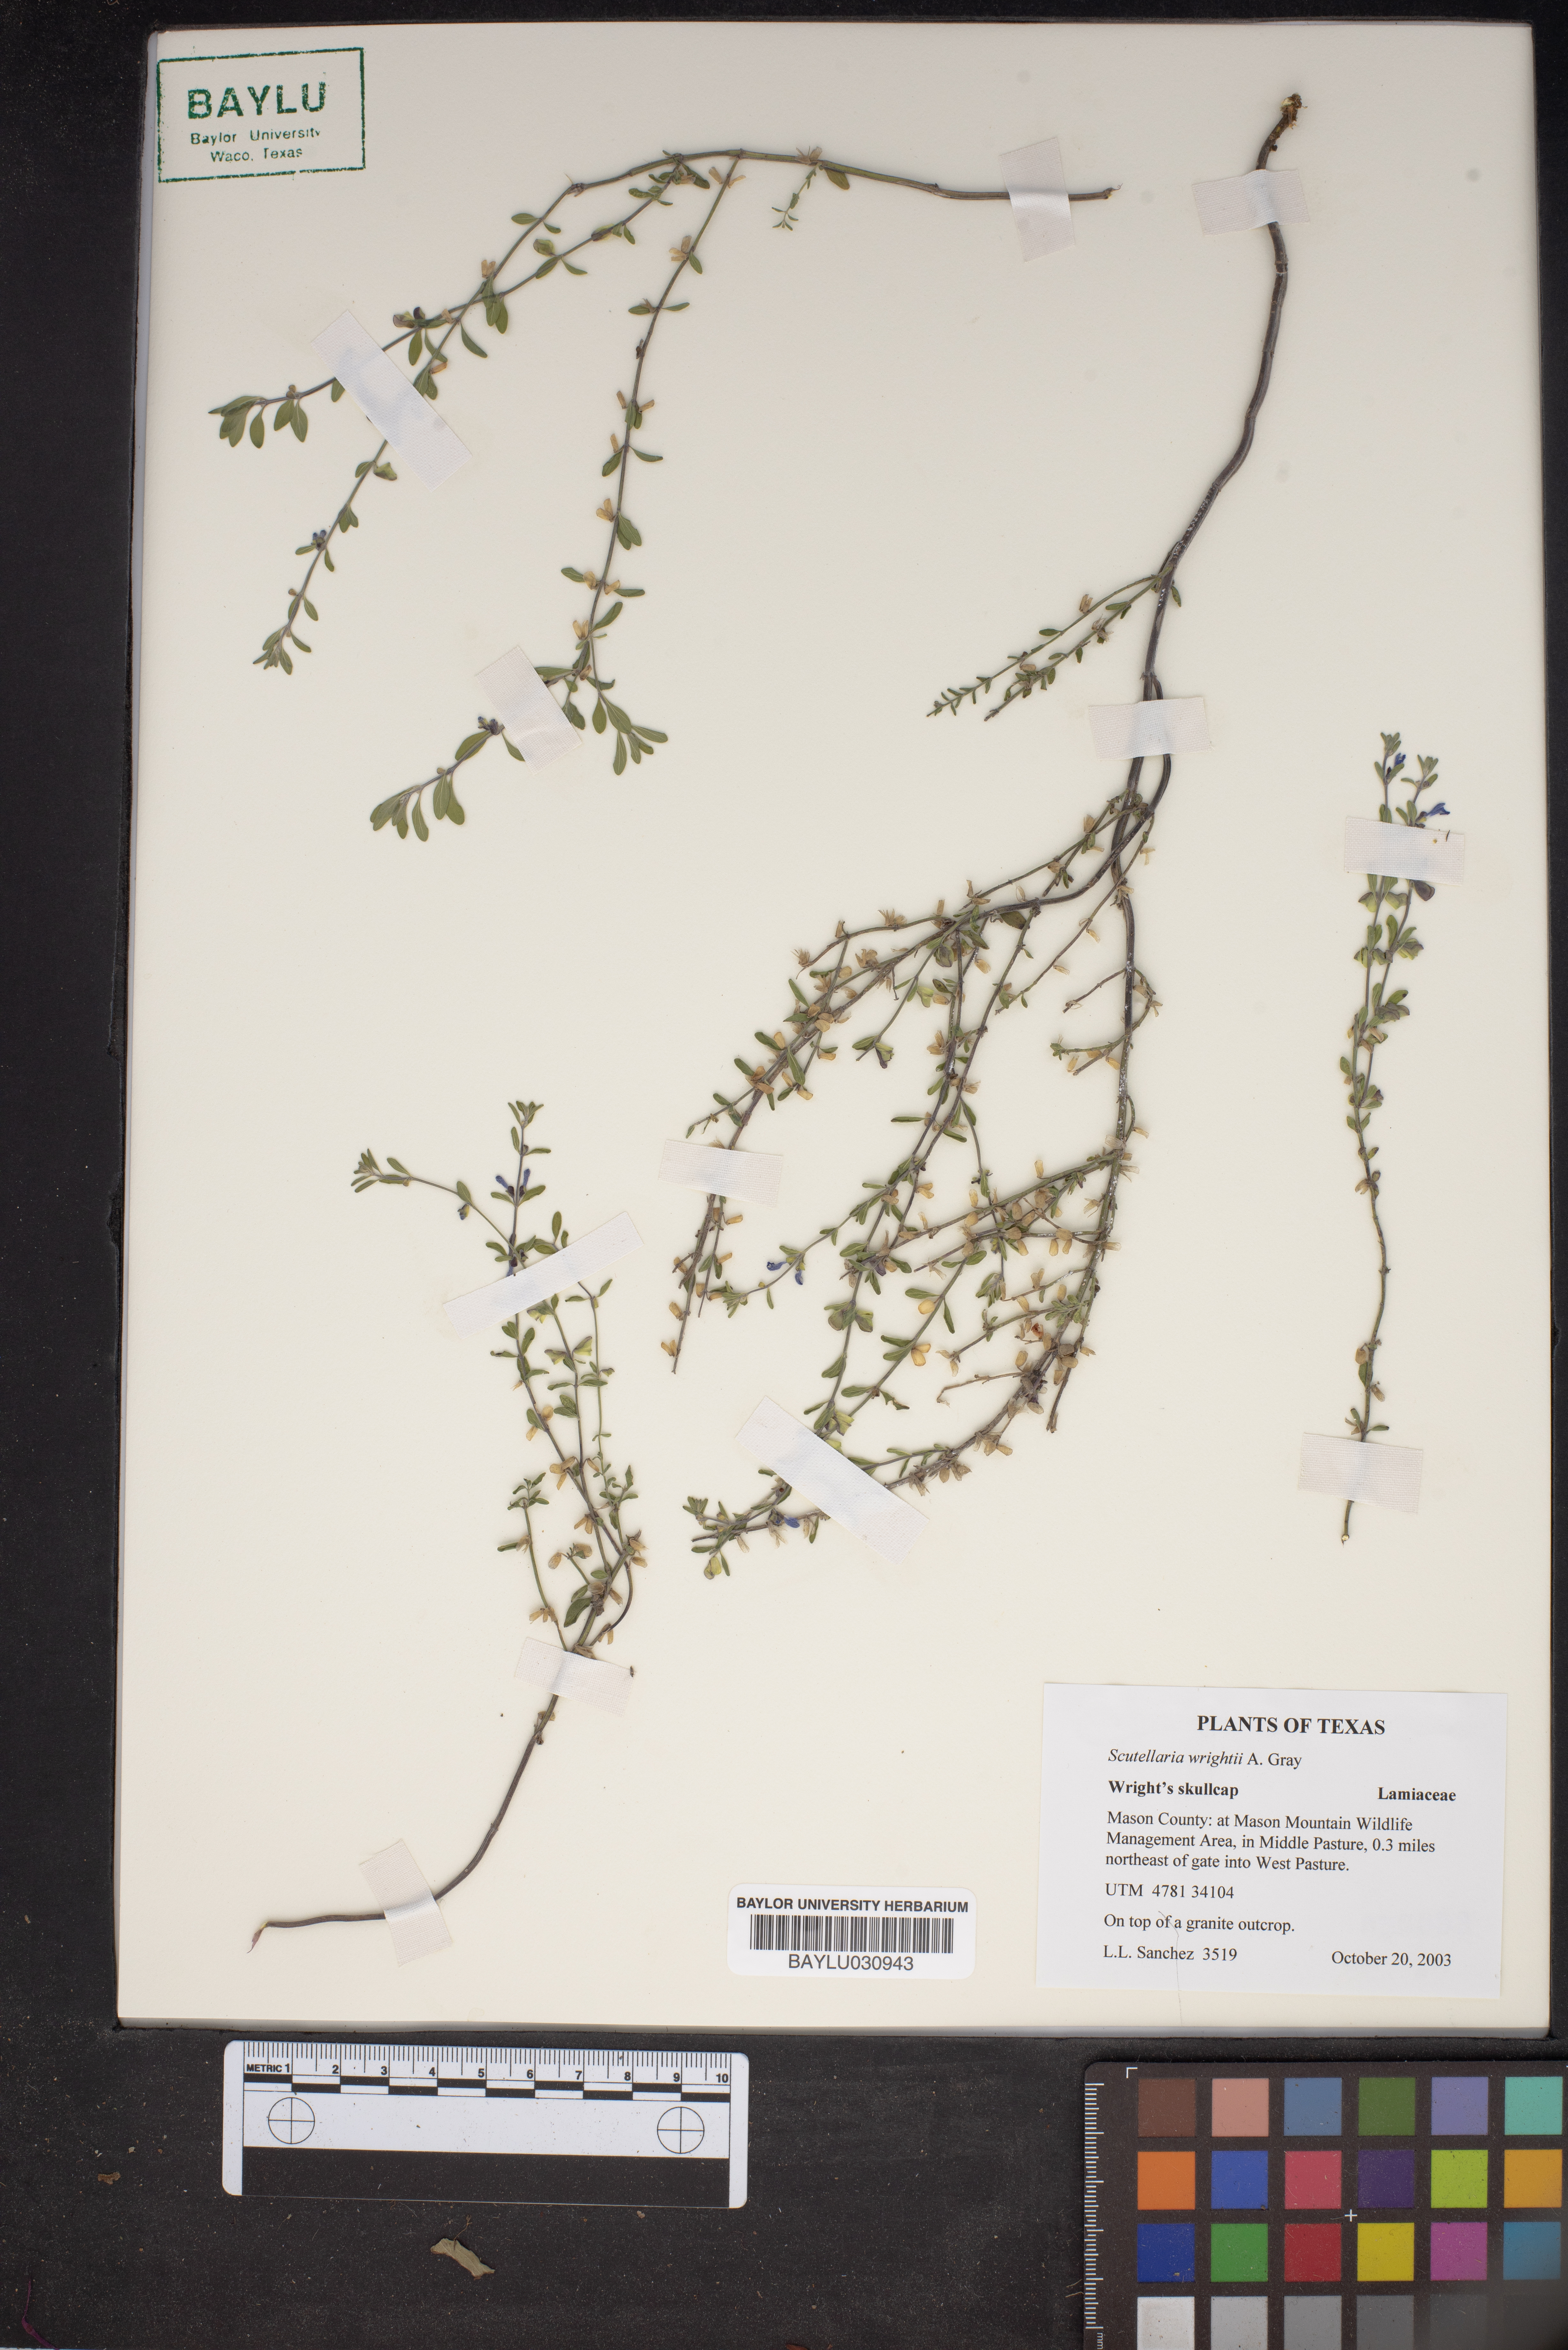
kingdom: Plantae
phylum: Tracheophyta
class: Magnoliopsida
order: Lamiales
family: Lamiaceae
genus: Scutellaria
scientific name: Scutellaria wrightii
